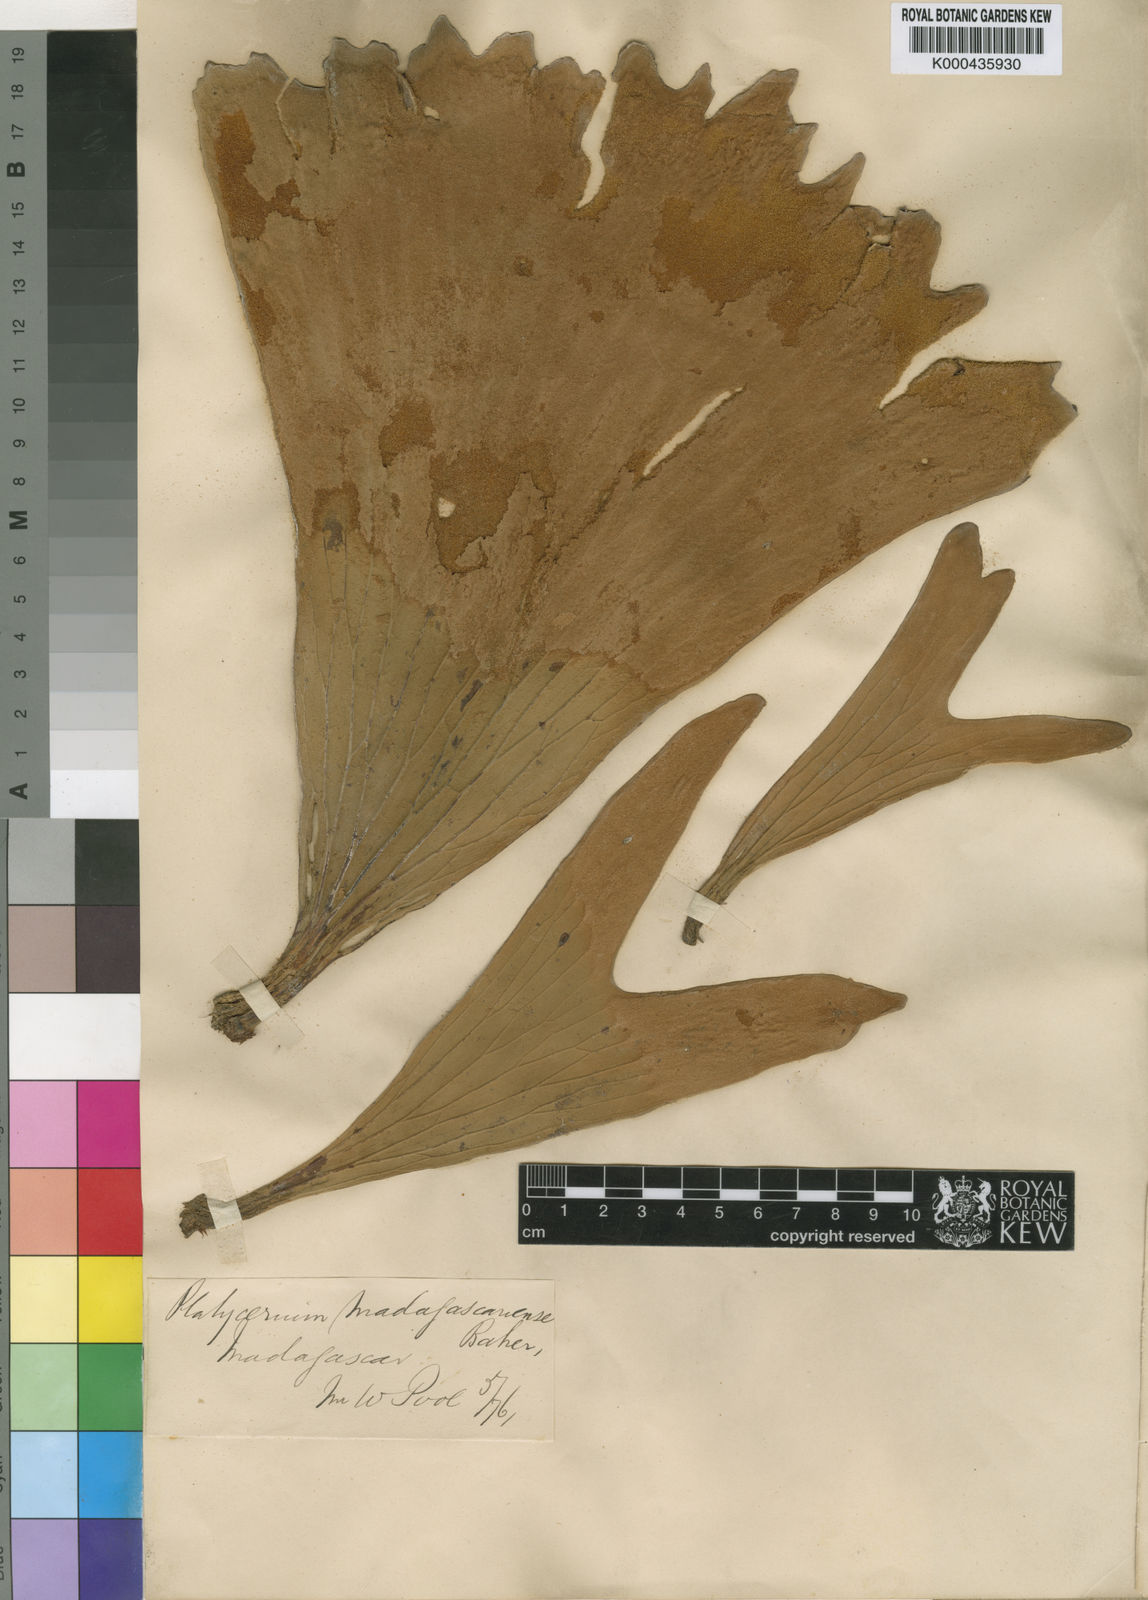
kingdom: Plantae
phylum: Tracheophyta
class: Polypodiopsida
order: Polypodiales
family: Polypodiaceae
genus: Platycerium
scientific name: Platycerium madagascariense
